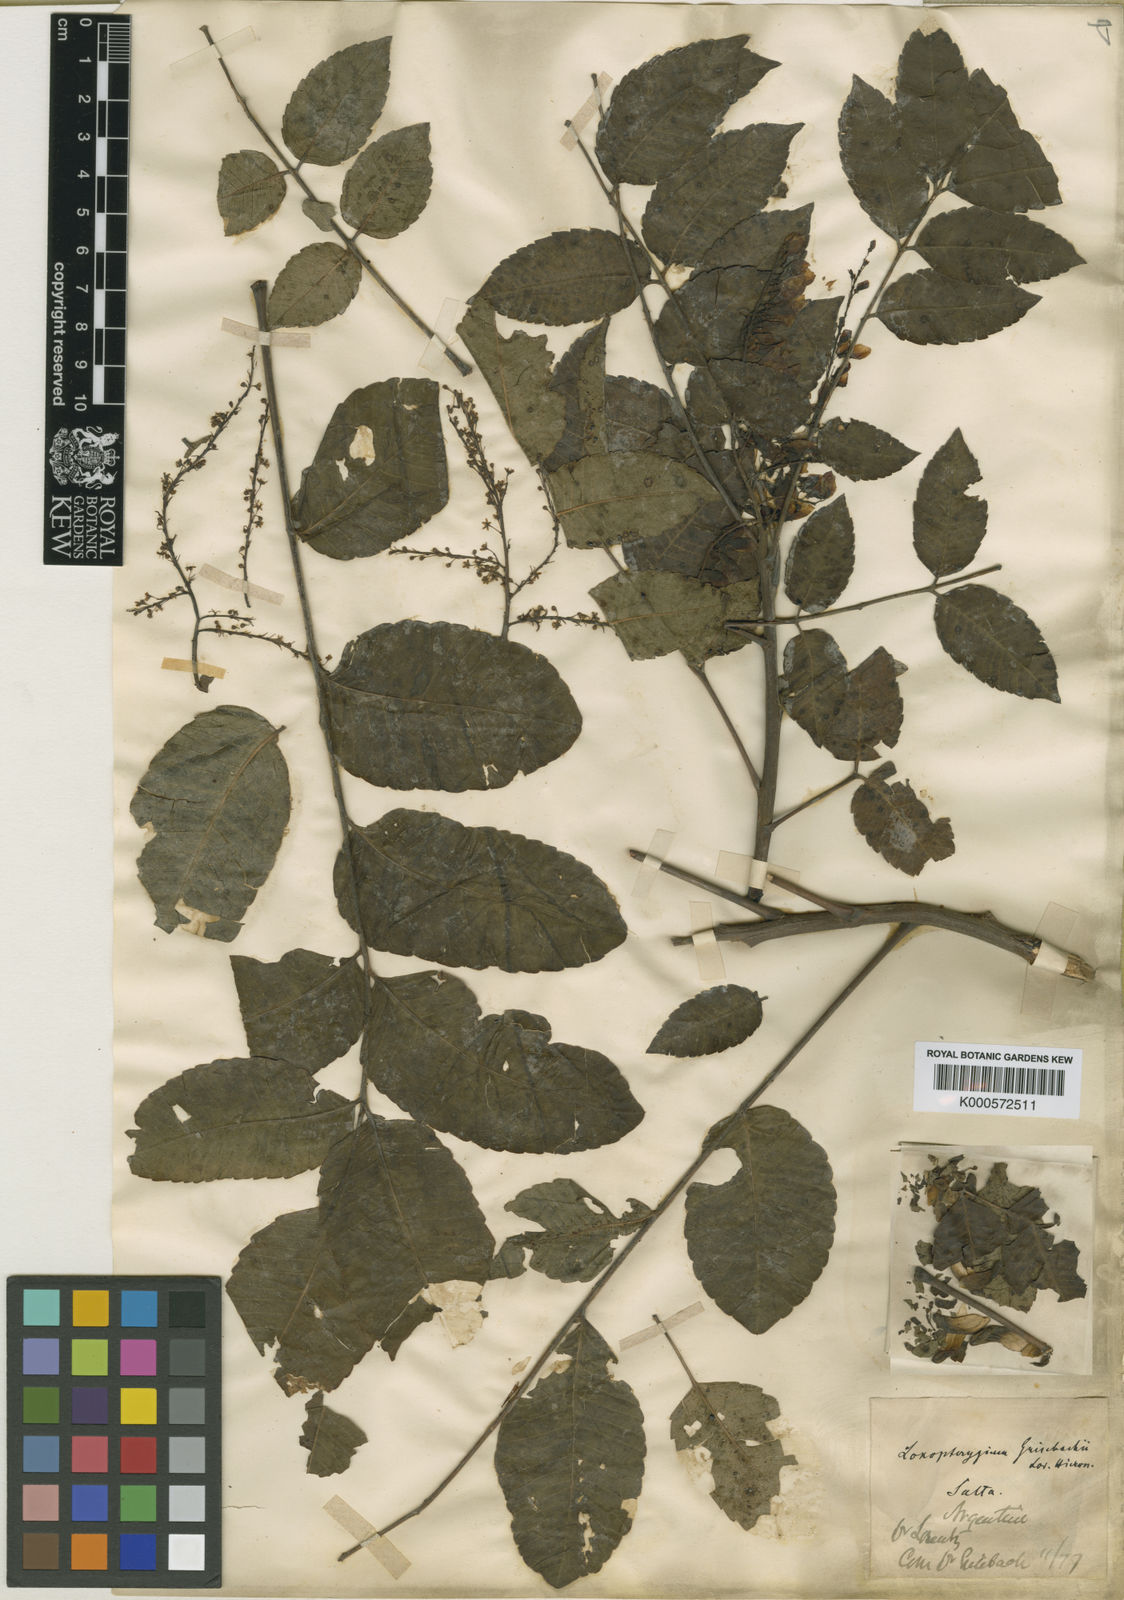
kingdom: Plantae
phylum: Tracheophyta
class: Magnoliopsida
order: Sapindales
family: Anacardiaceae
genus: Loxopterygium
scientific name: Loxopterygium grisebachii
